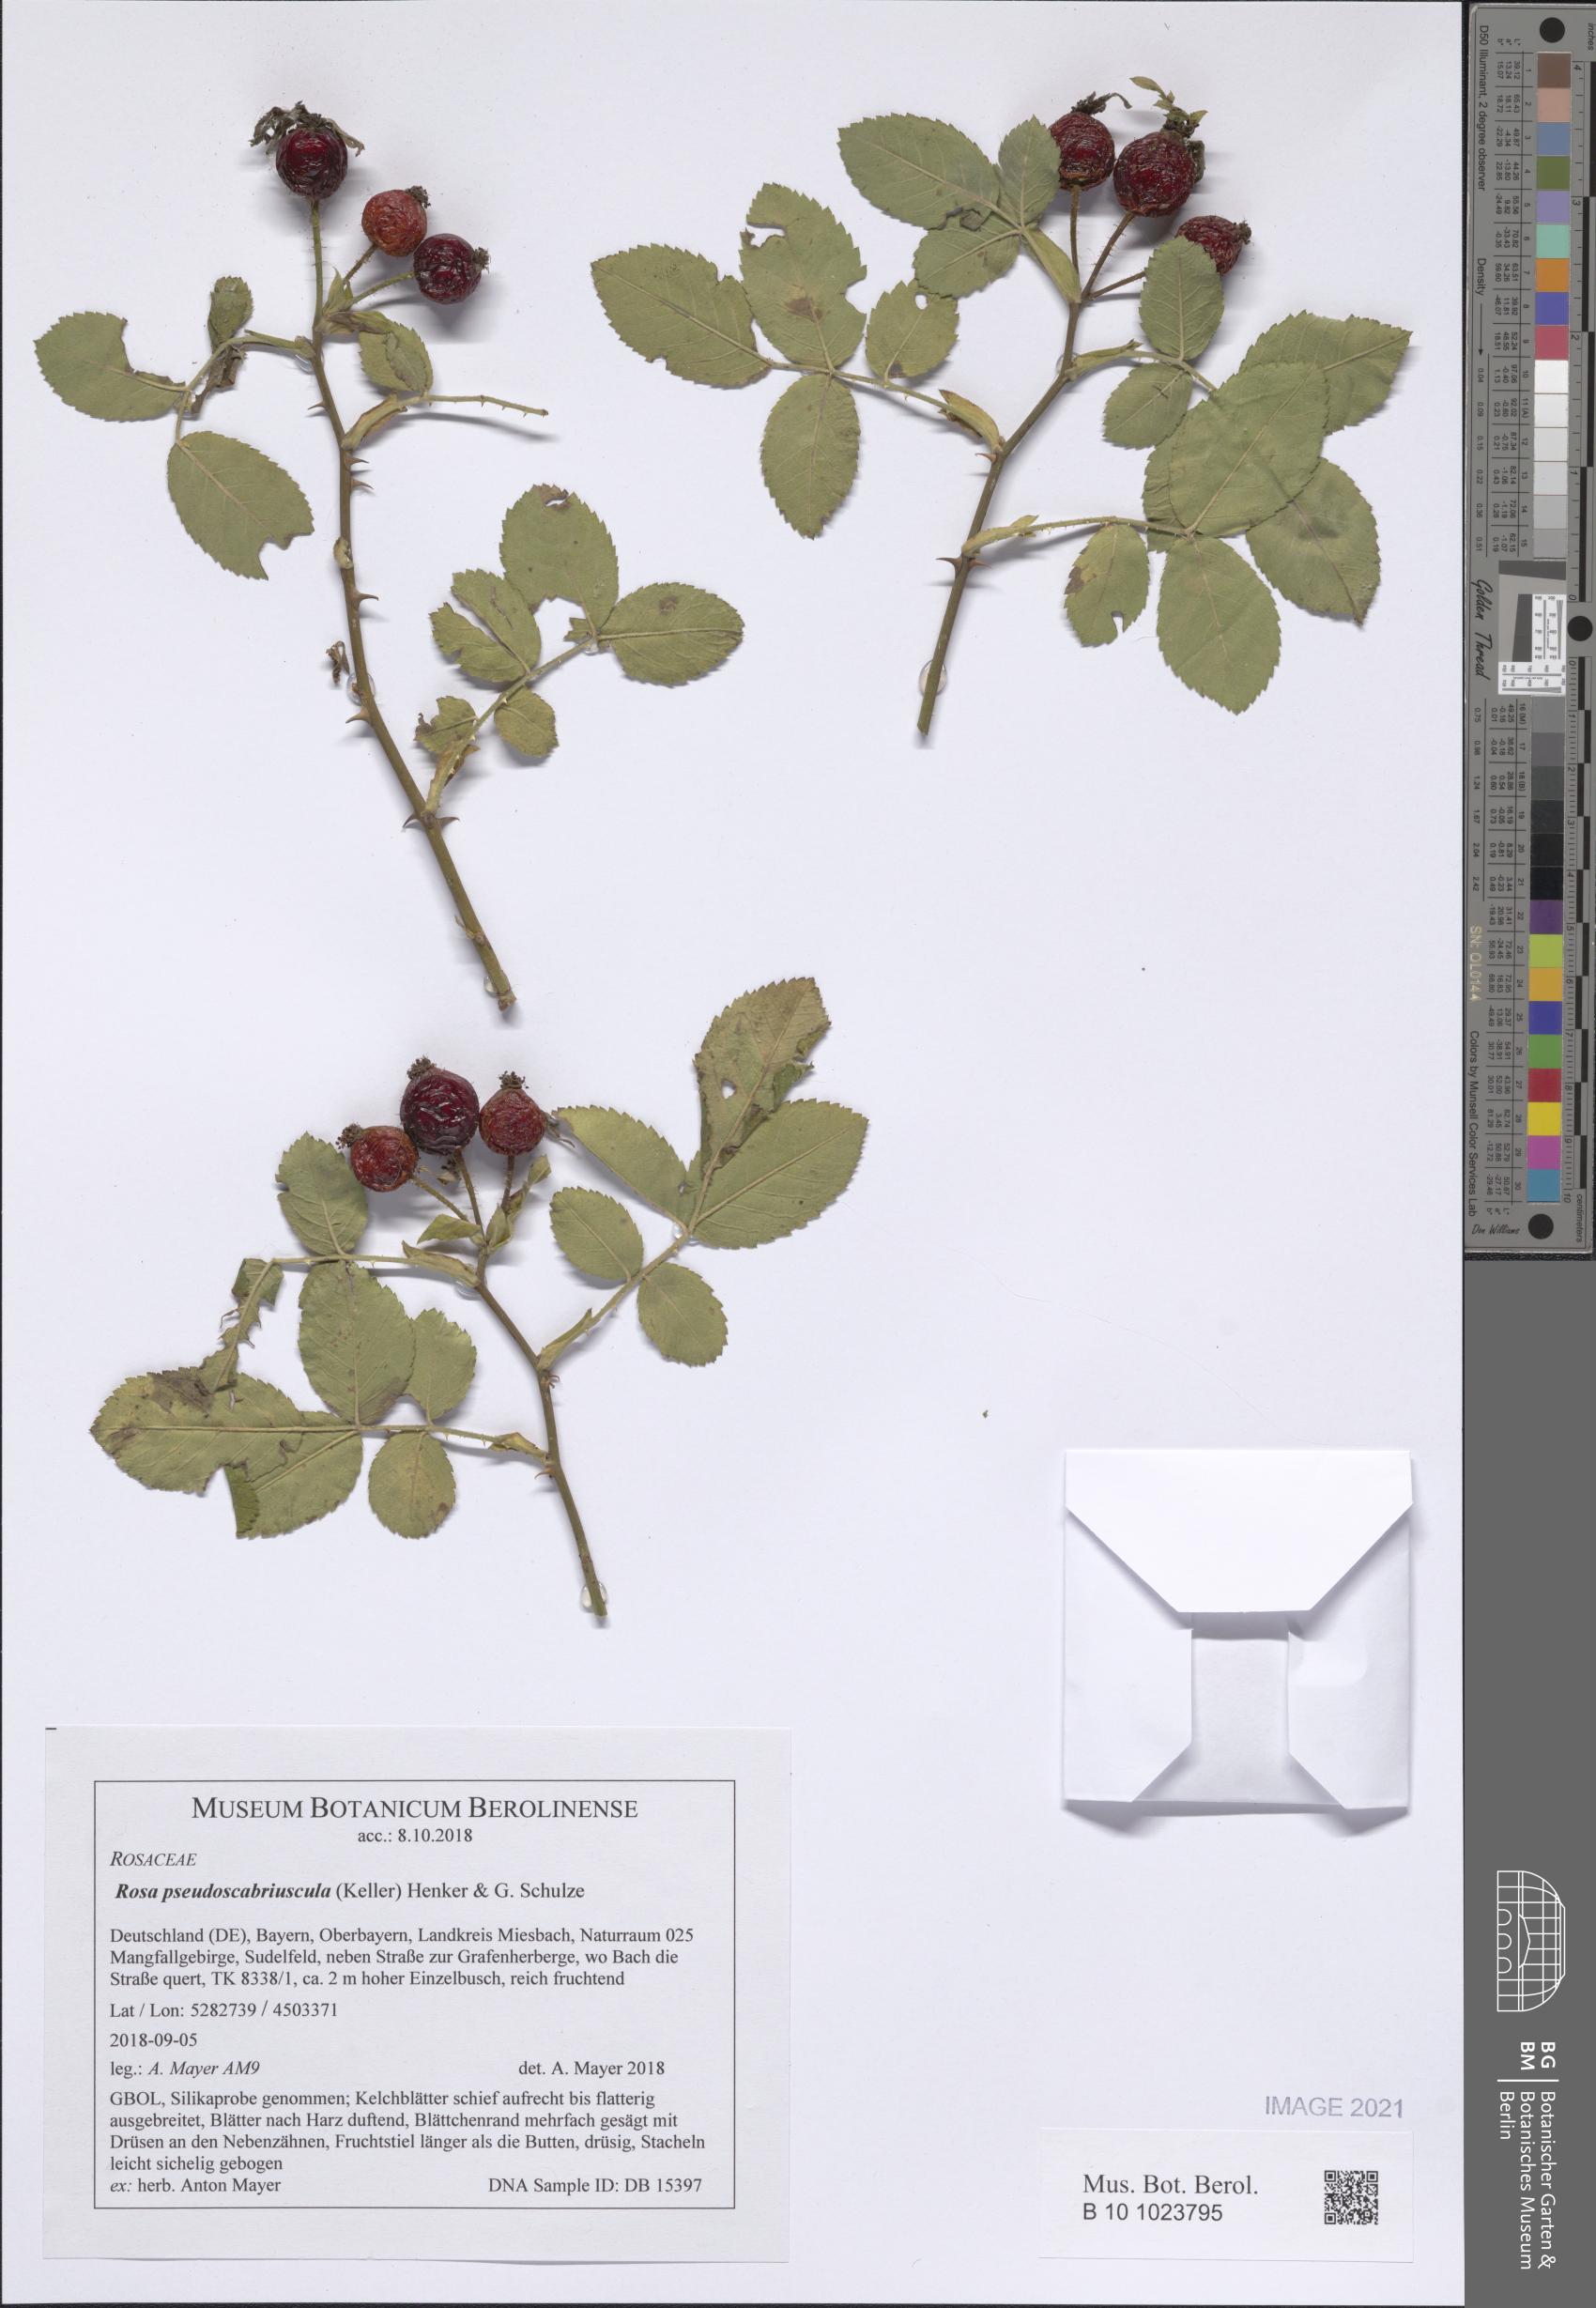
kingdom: Plantae
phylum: Tracheophyta
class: Magnoliopsida
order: Rosales
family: Rosaceae
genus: Rosa
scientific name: Rosa tomentosa
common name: Downy rose
